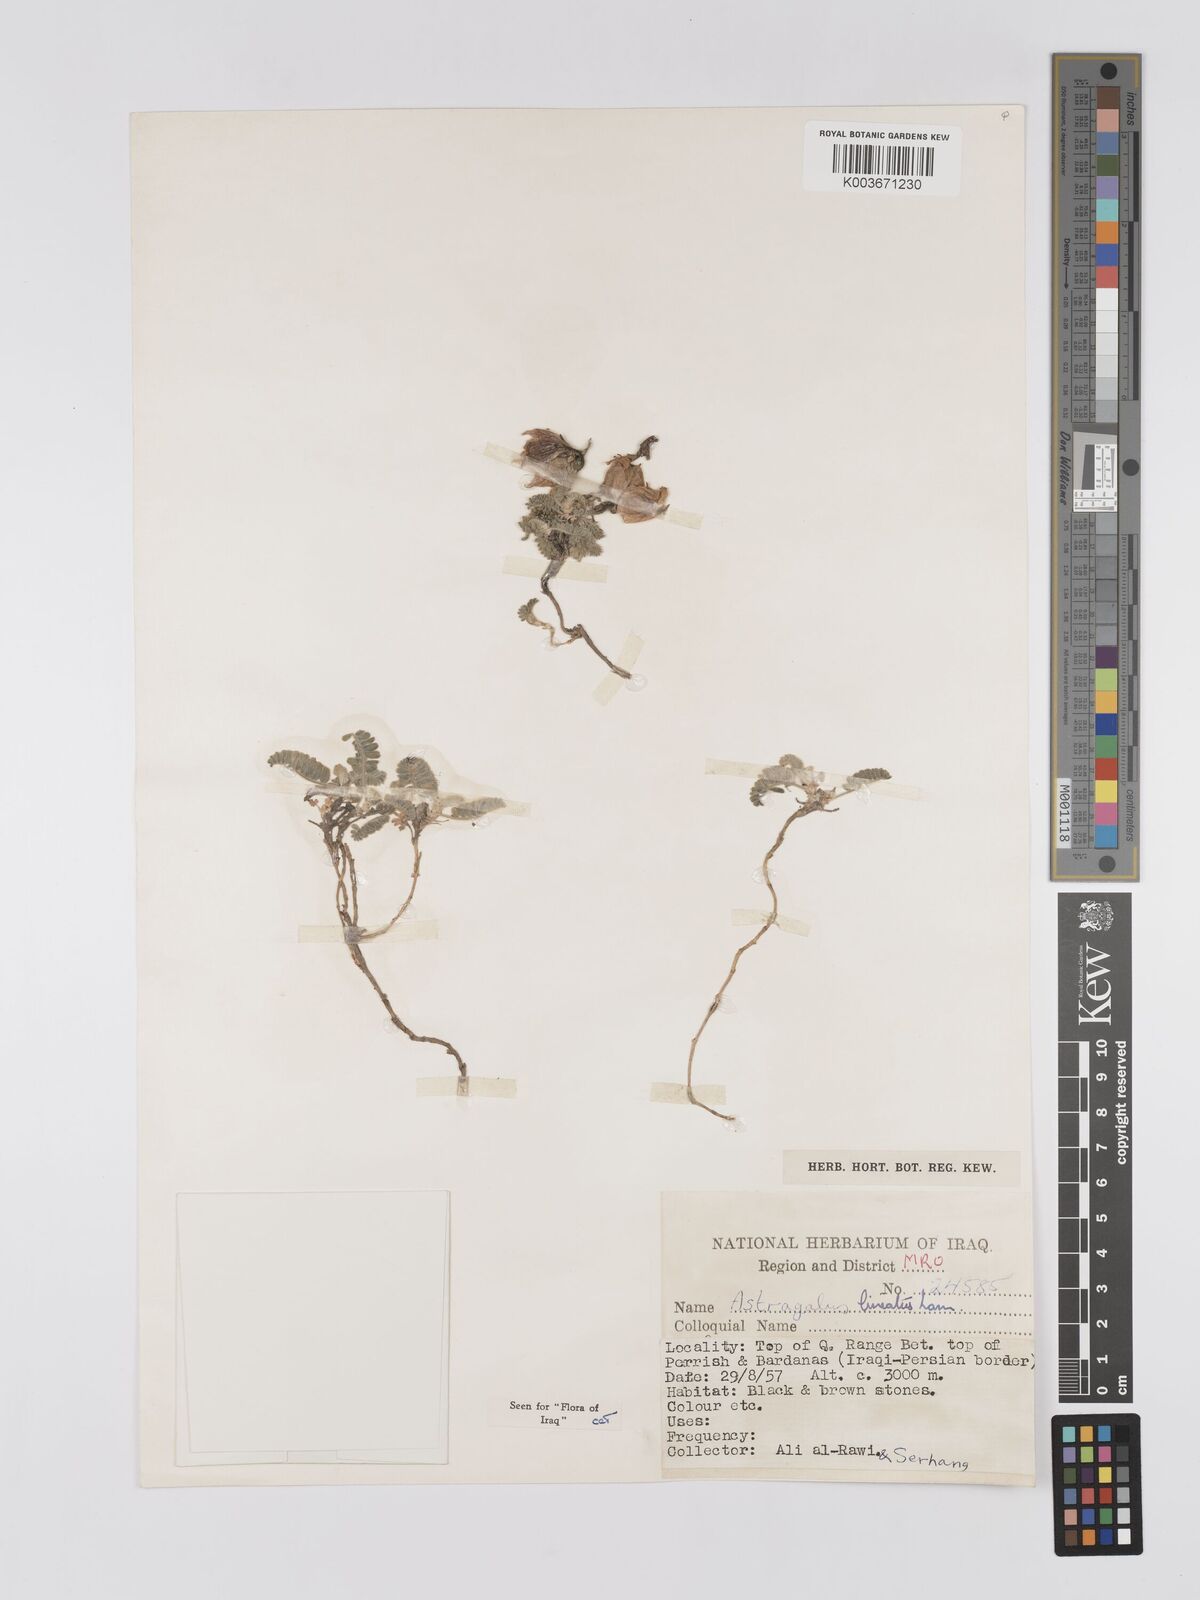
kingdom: Plantae
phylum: Tracheophyta
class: Magnoliopsida
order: Fabales
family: Fabaceae
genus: Astragalus
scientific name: Astragalus lineatus
